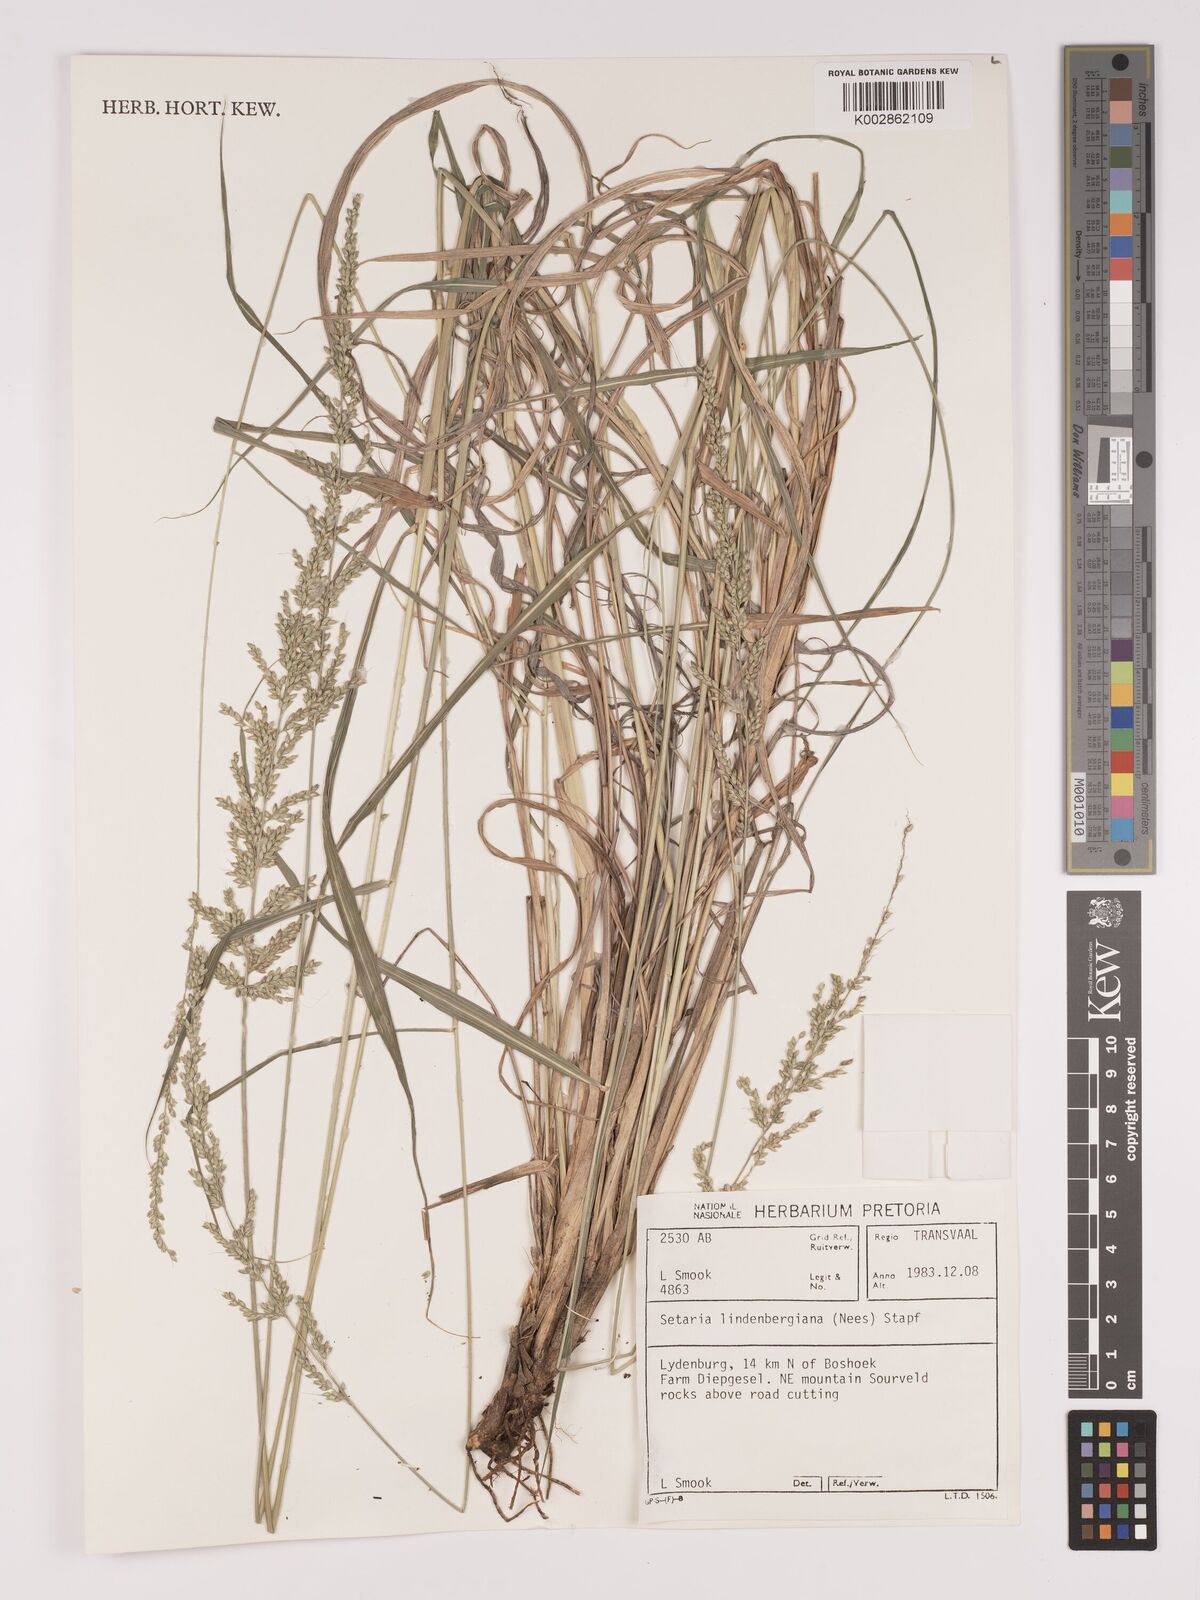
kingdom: Plantae
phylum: Tracheophyta
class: Liliopsida
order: Poales
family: Poaceae
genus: Setaria
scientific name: Setaria lindenbergiana
